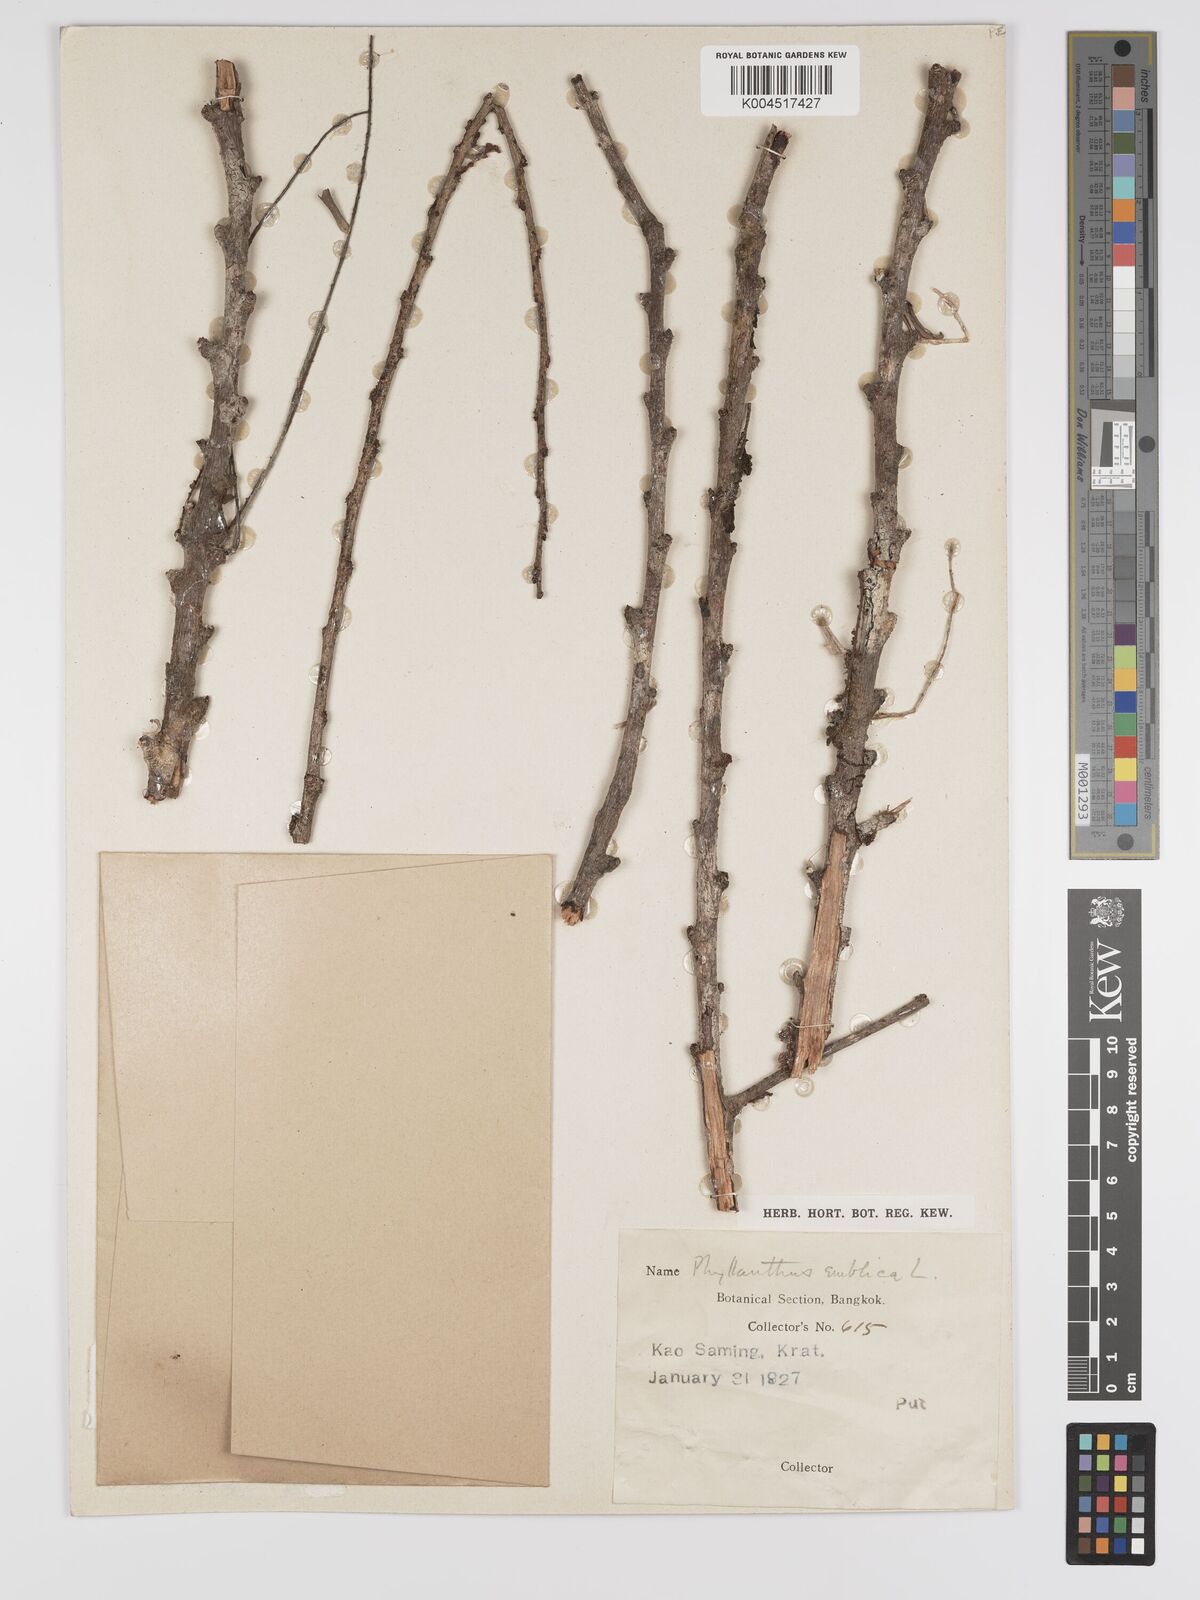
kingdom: Plantae
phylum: Tracheophyta
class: Magnoliopsida
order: Malpighiales
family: Phyllanthaceae
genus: Phyllanthus
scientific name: Phyllanthus
